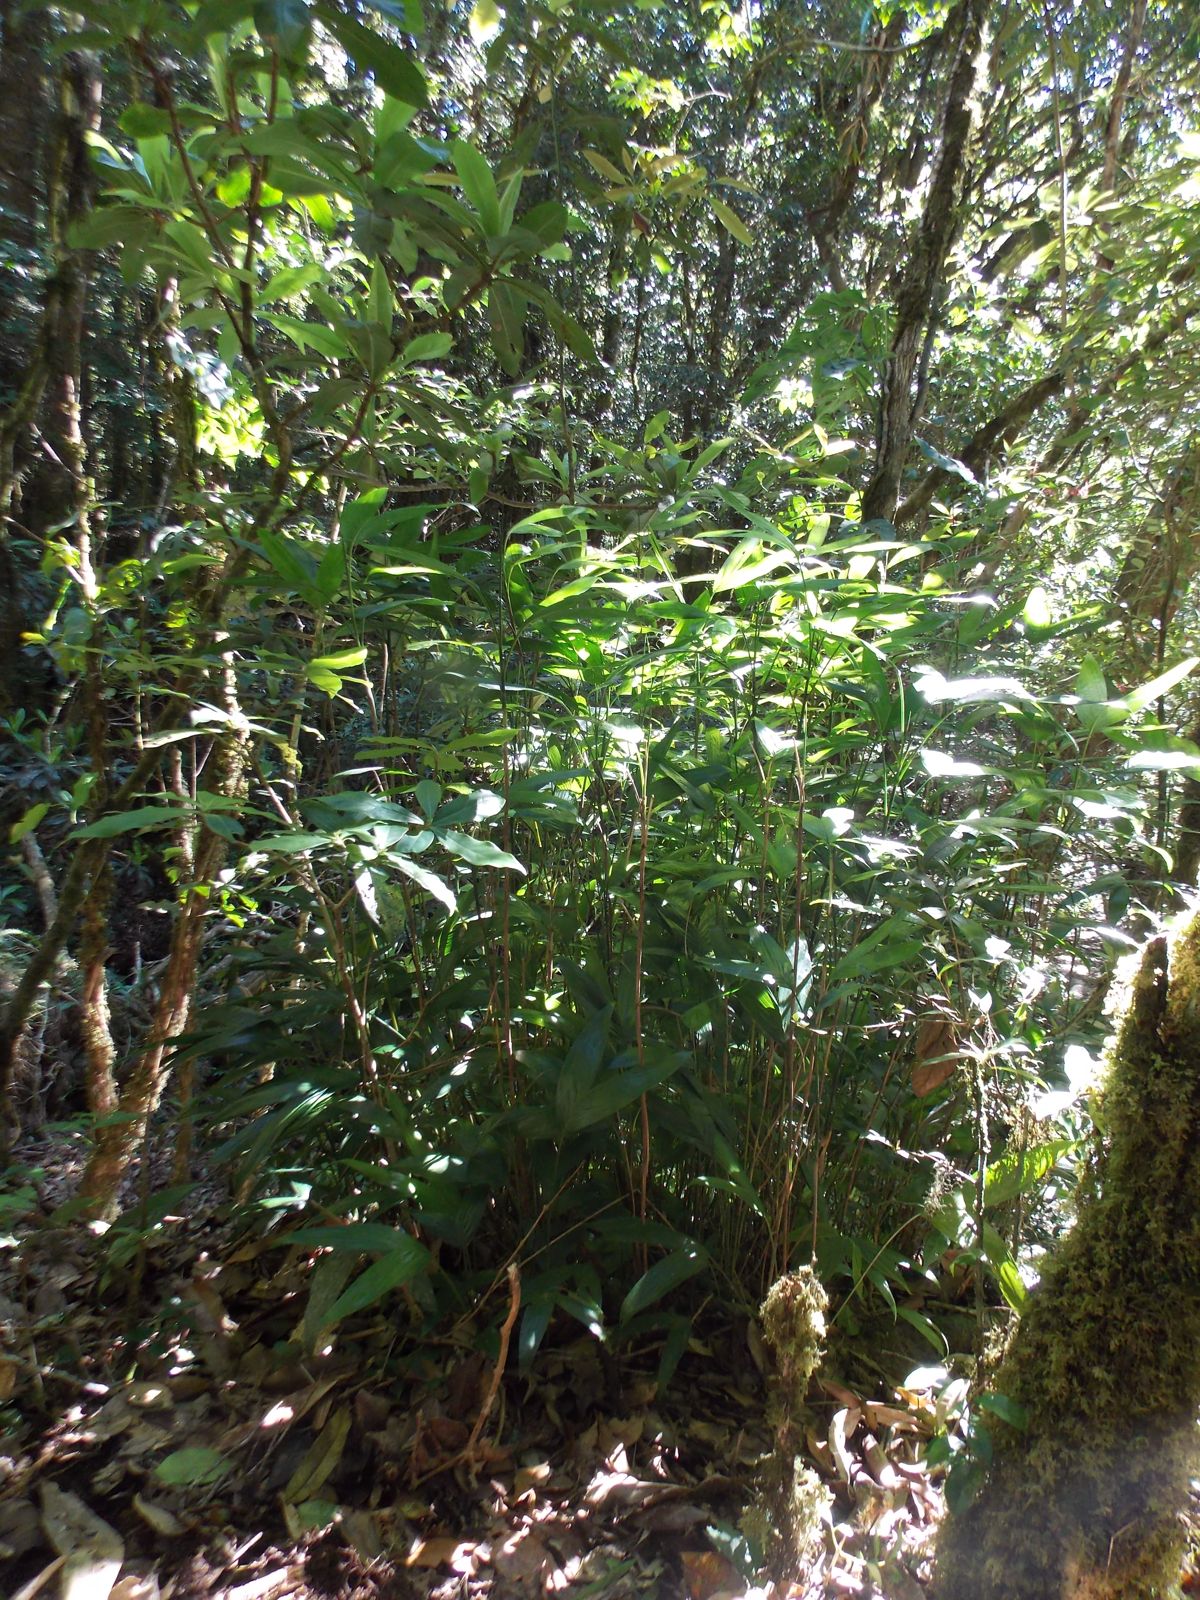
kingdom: Plantae
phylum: Tracheophyta
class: Liliopsida
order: Arecales
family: Arecaceae
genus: Chamaedorea
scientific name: Chamaedorea nubium
